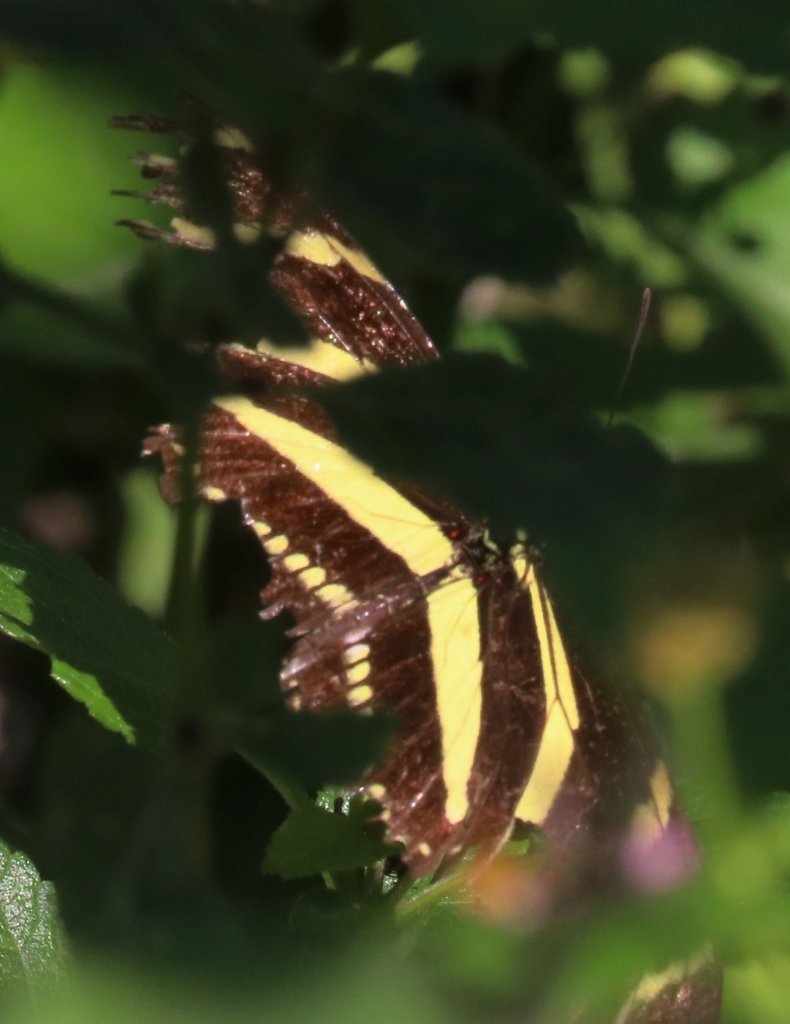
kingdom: Animalia
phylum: Arthropoda
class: Insecta
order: Lepidoptera
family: Nymphalidae
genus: Heliconius
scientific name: Heliconius charithonia
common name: Zebra Longwing
